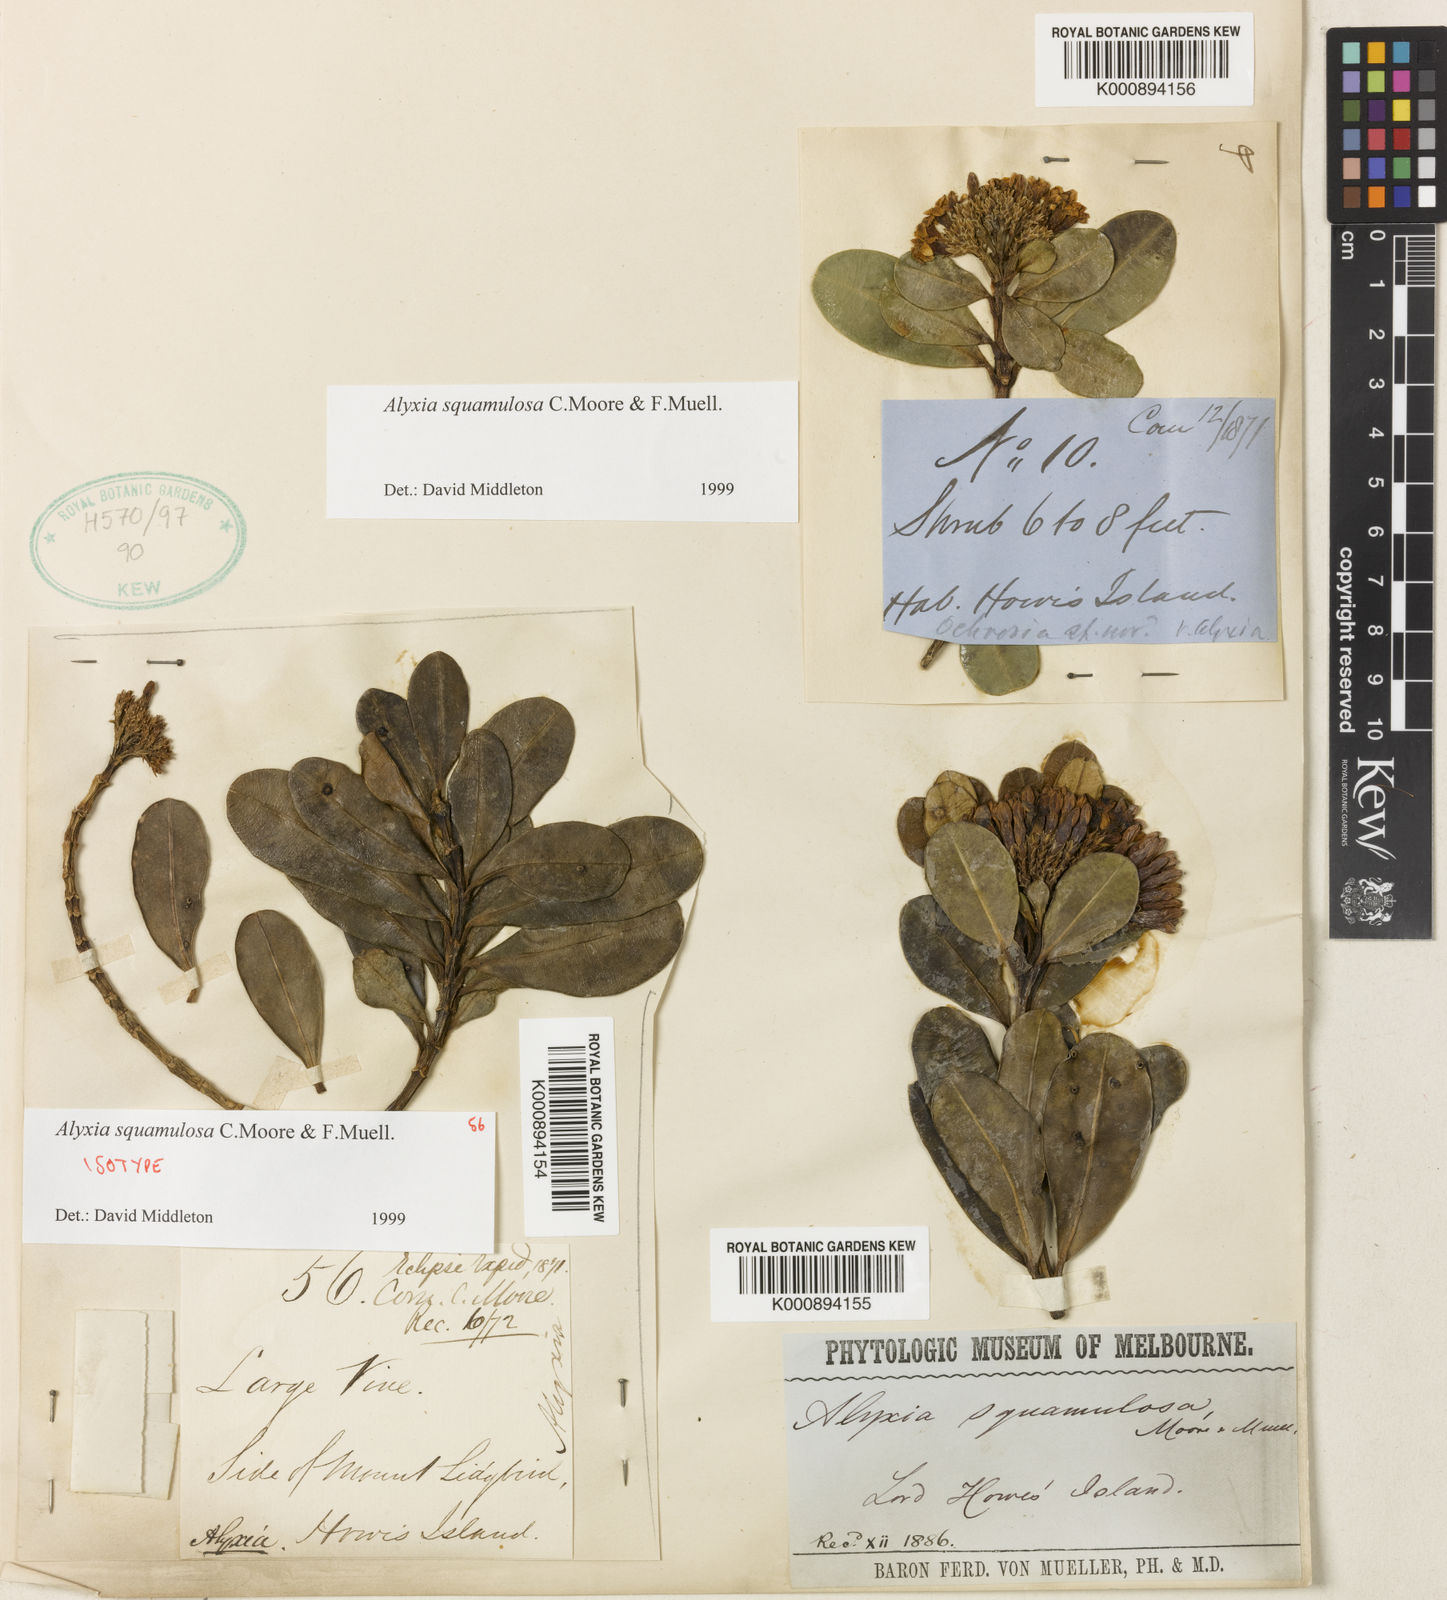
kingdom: Plantae
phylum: Tracheophyta
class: Magnoliopsida
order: Gentianales
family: Apocynaceae
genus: Alyxia
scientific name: Alyxia squamulosa
